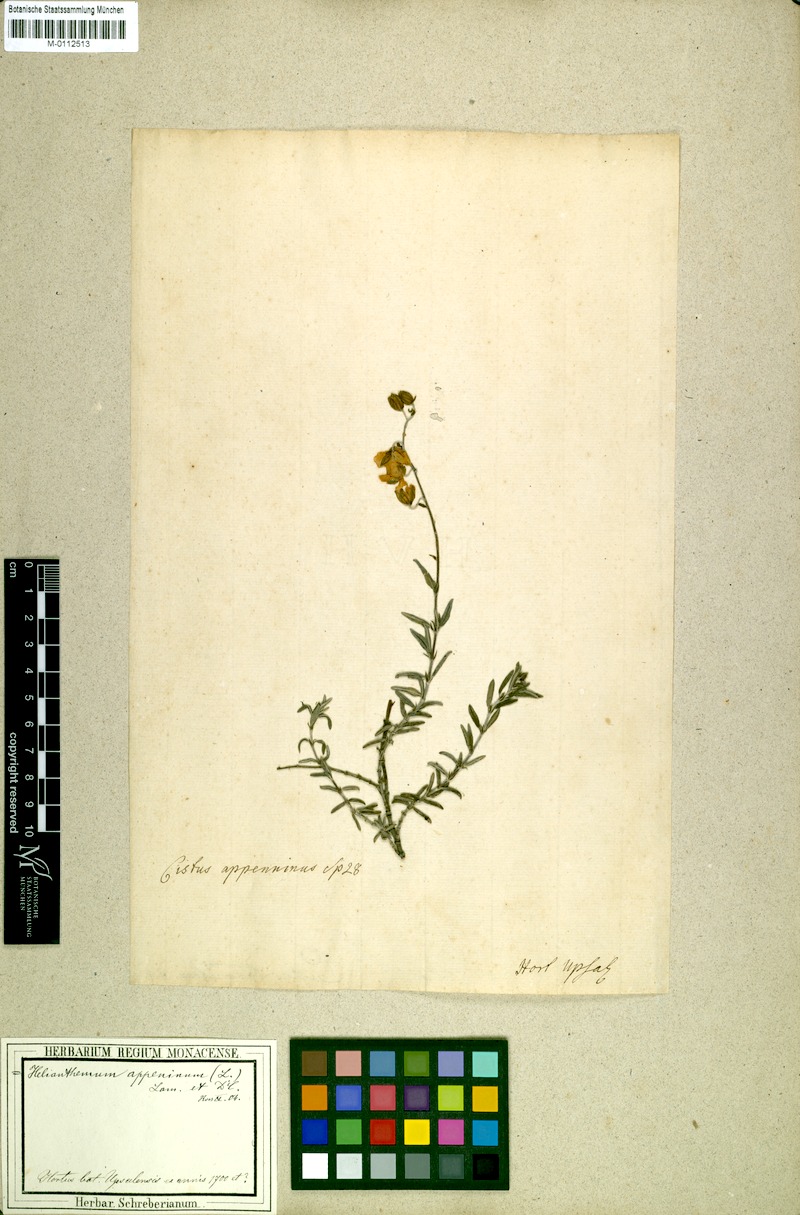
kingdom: Plantae
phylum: Tracheophyta
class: Magnoliopsida
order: Malvales
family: Cistaceae
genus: Helianthemum
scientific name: Helianthemum apenninum
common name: White rock-rose
